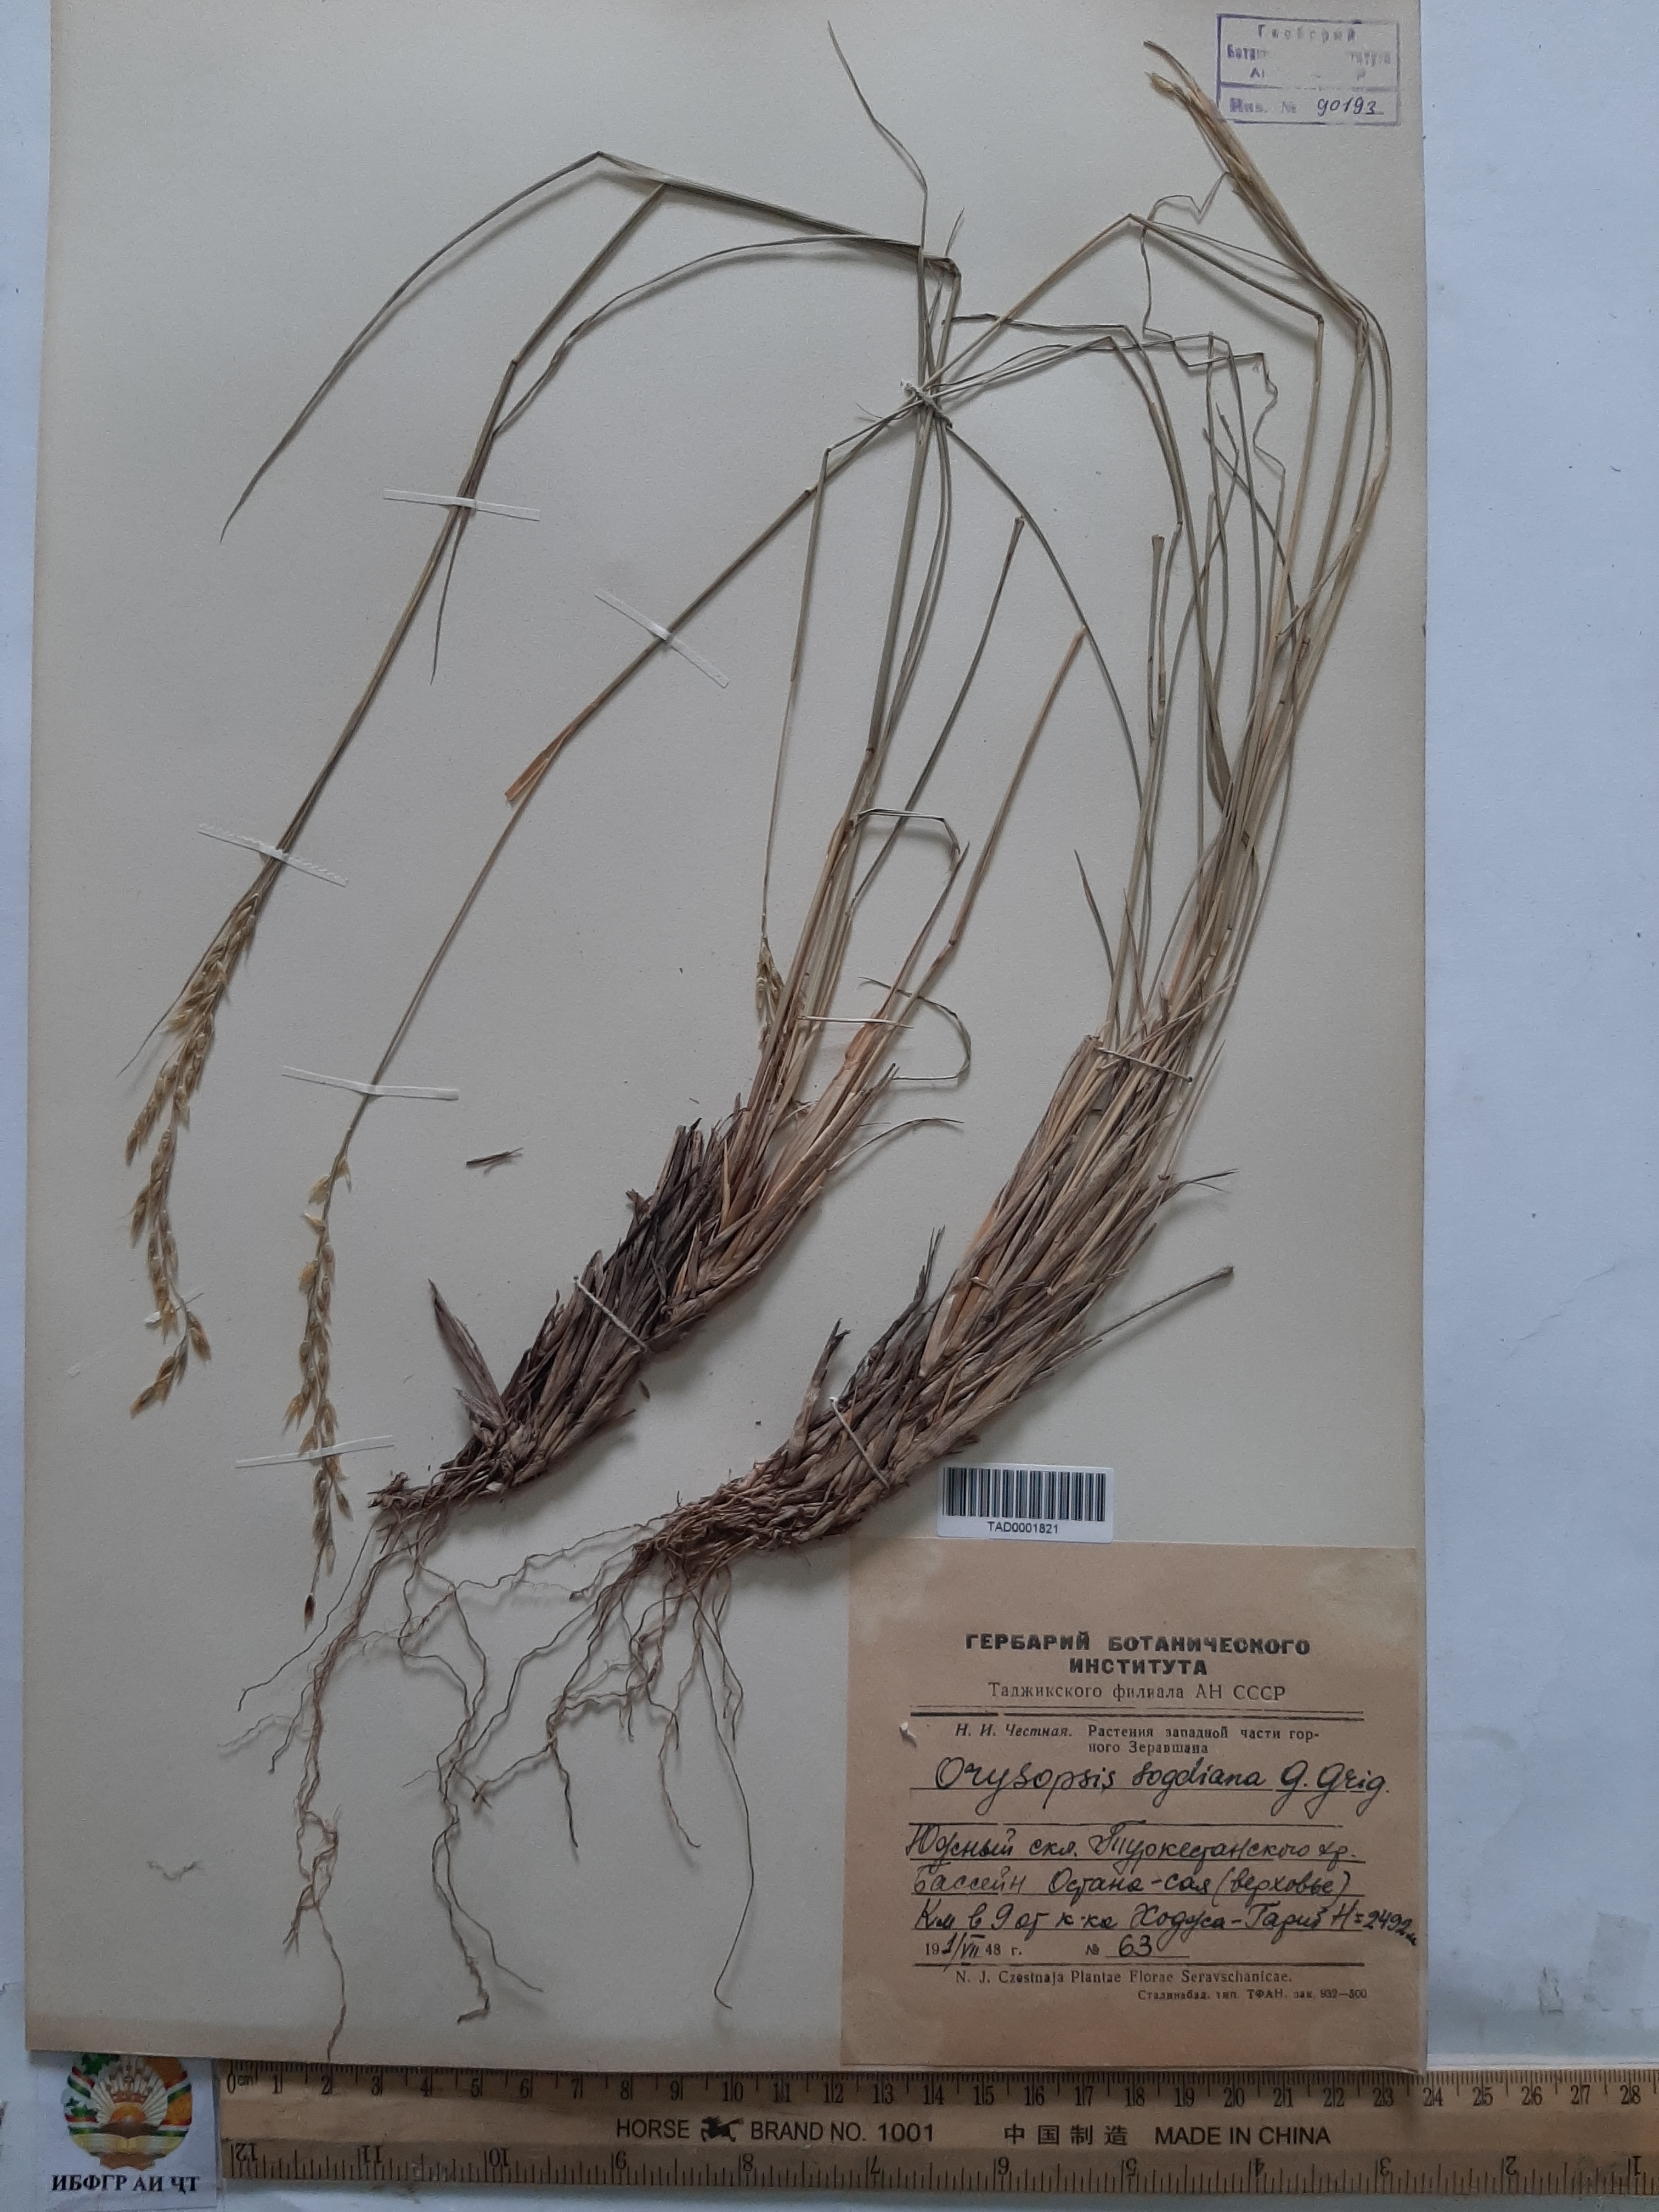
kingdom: Plantae
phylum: Tracheophyta
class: Liliopsida
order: Poales
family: Poaceae
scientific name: Poaceae
